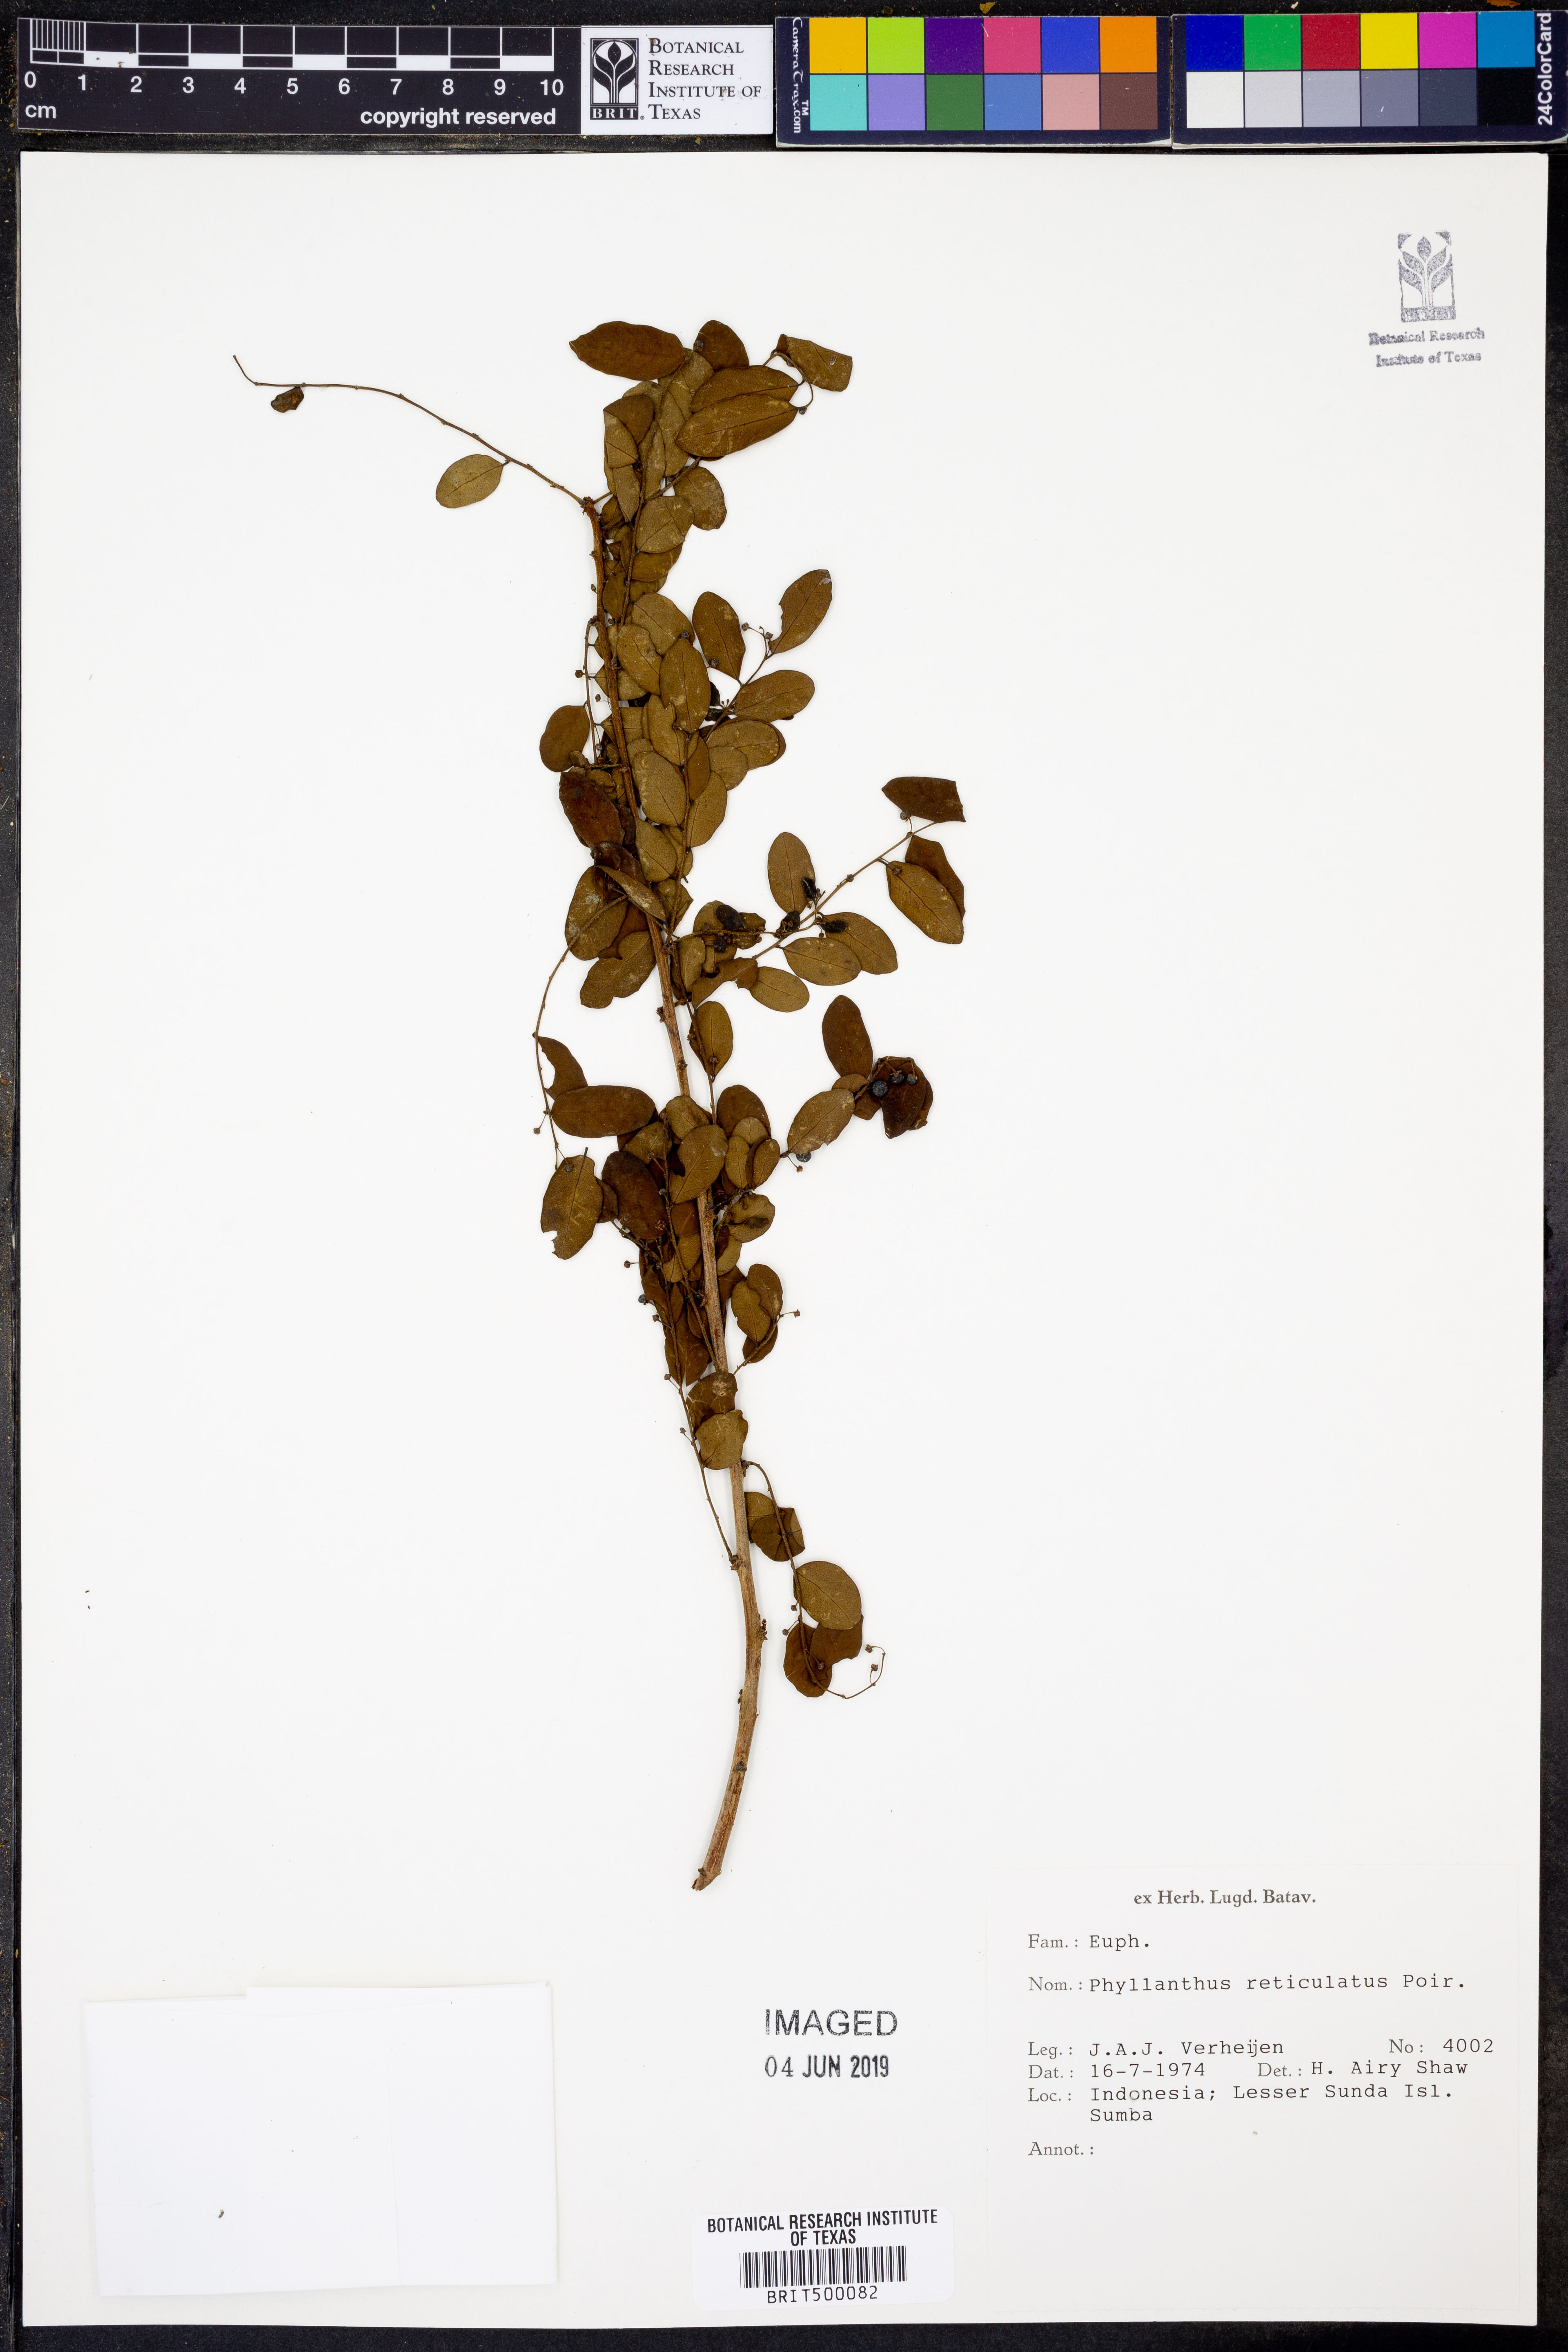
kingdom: Plantae
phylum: Tracheophyta
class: Magnoliopsida
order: Malpighiales
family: Phyllanthaceae
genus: Phyllanthus
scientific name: Phyllanthus reticulatus
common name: Potato bush
